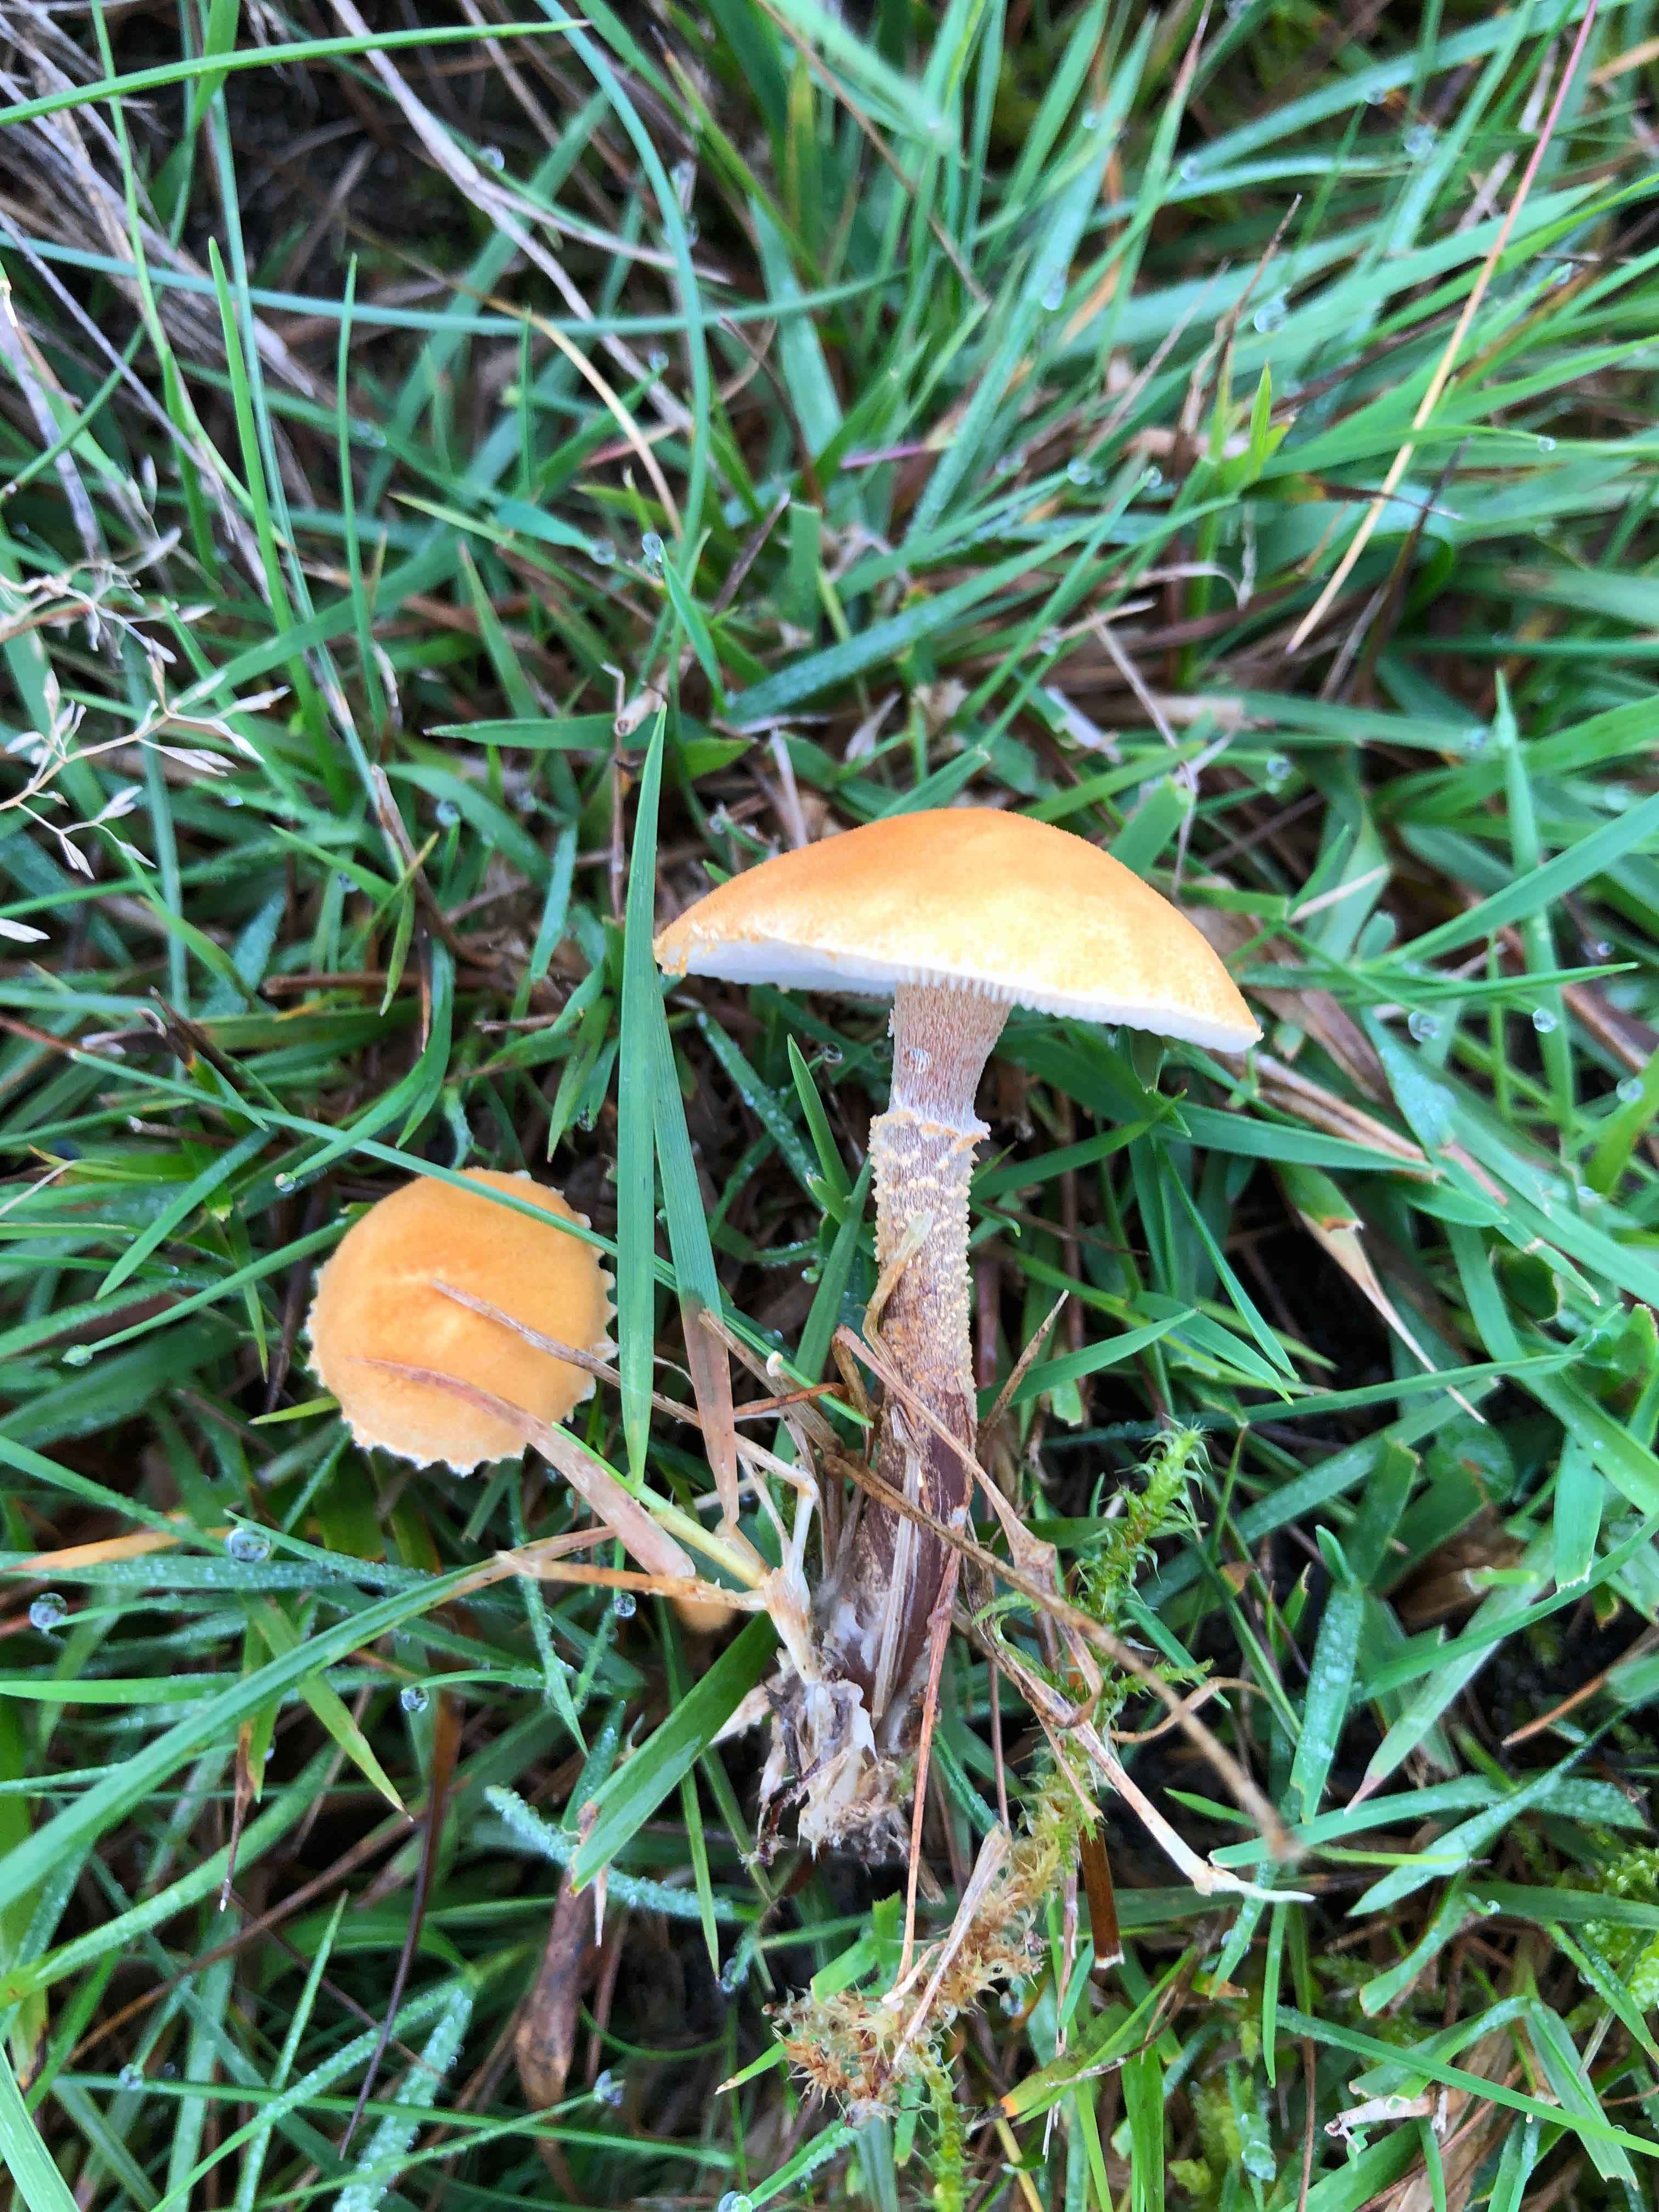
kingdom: Fungi
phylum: Basidiomycota
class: Agaricomycetes
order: Agaricales
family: Tricholomataceae
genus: Cystoderma
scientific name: Cystoderma amianthinum
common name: okkergul grynhat
